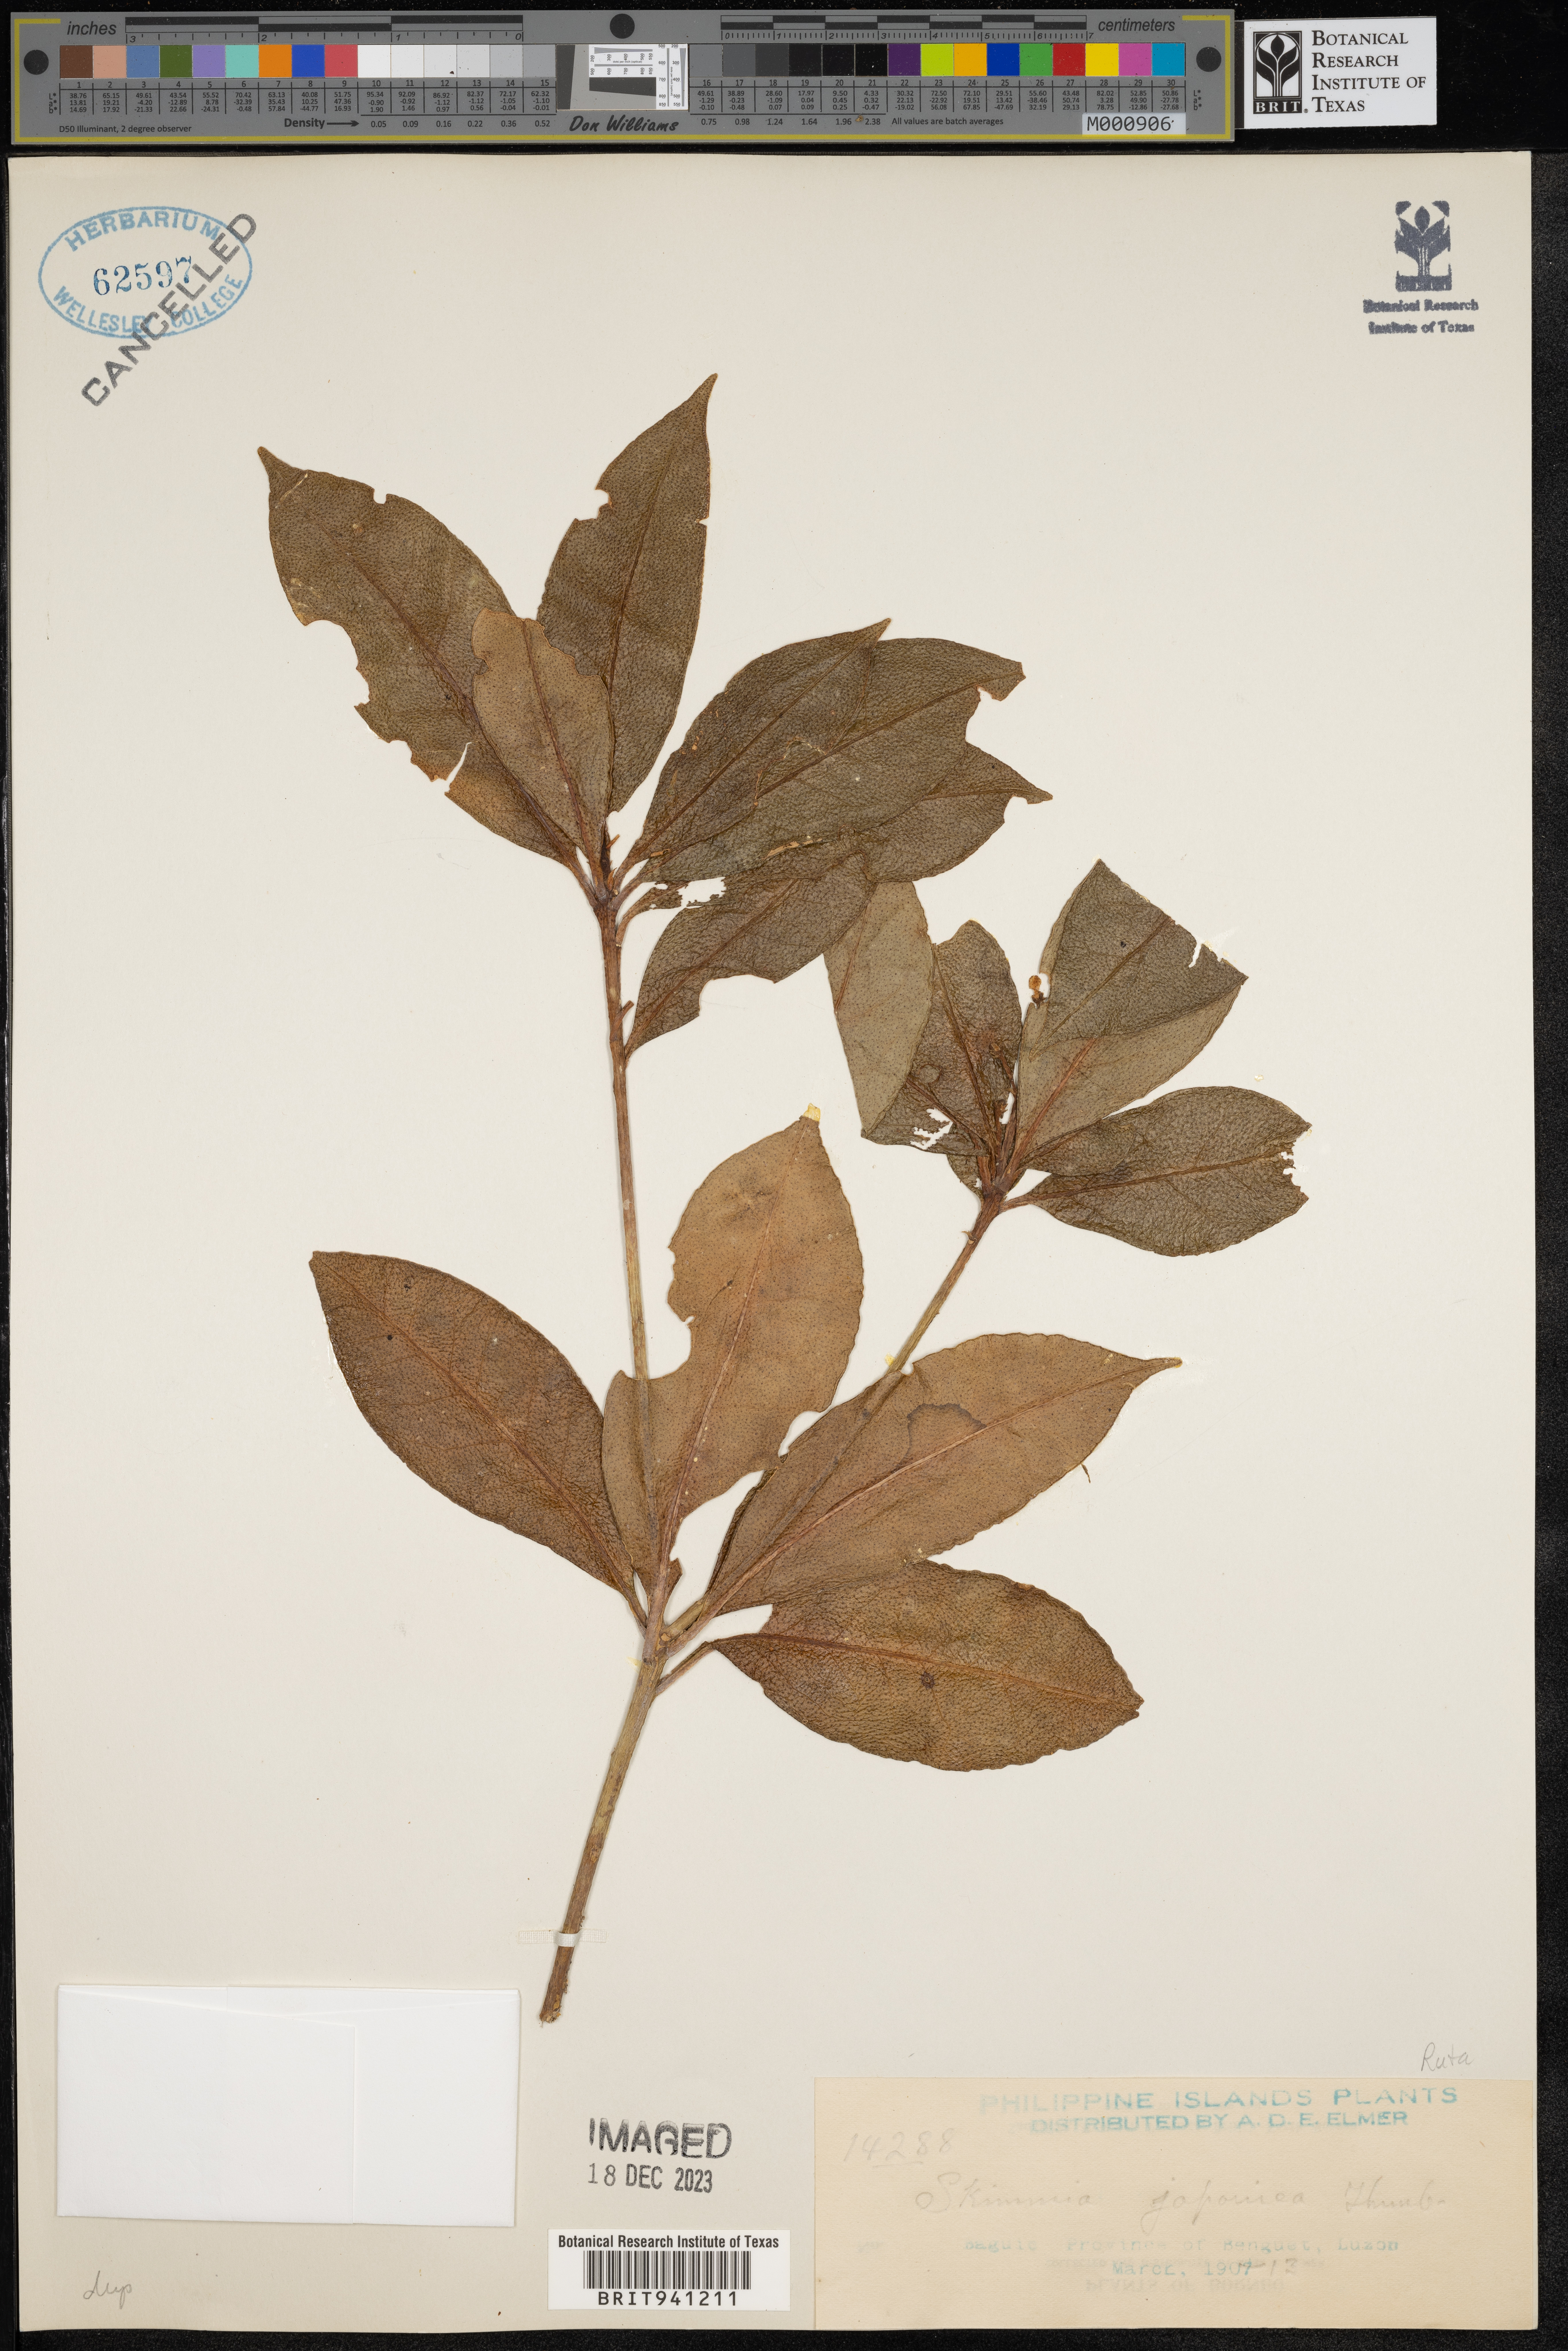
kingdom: Plantae
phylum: Tracheophyta
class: Magnoliopsida
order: Sapindales
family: Rutaceae
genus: Skimmia
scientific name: Skimmia
